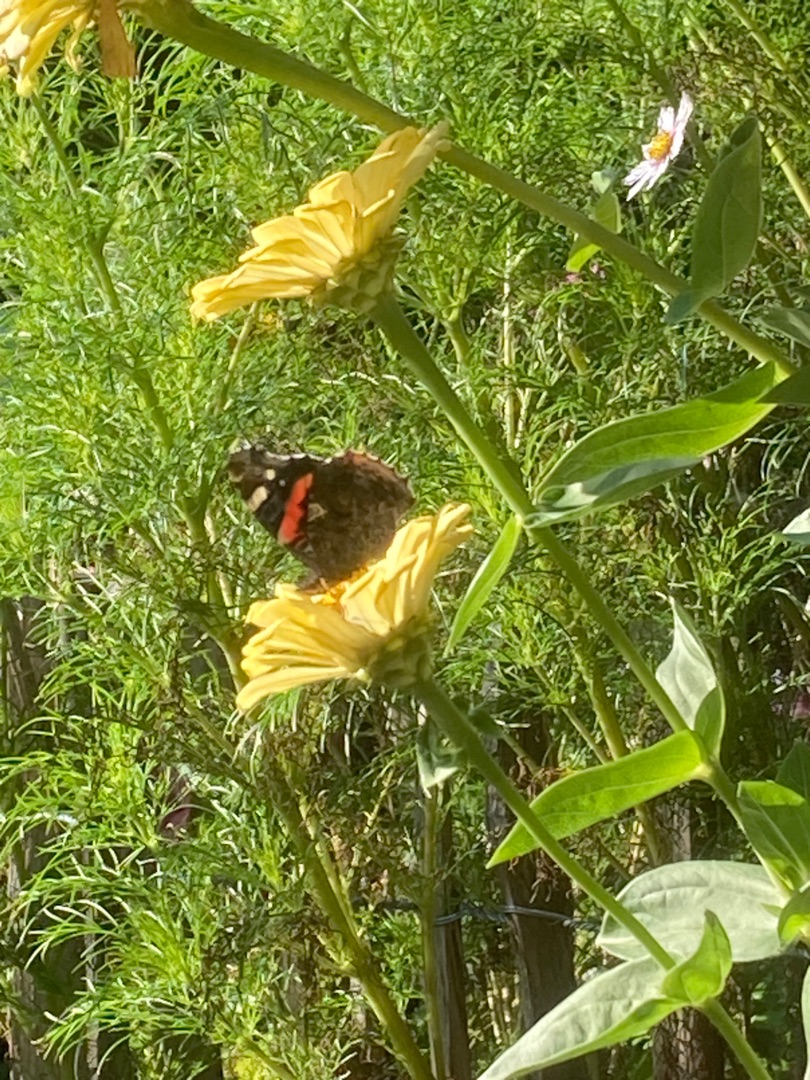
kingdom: Animalia
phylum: Arthropoda
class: Insecta
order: Lepidoptera
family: Nymphalidae
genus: Vanessa
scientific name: Vanessa atalanta
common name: Admiral
